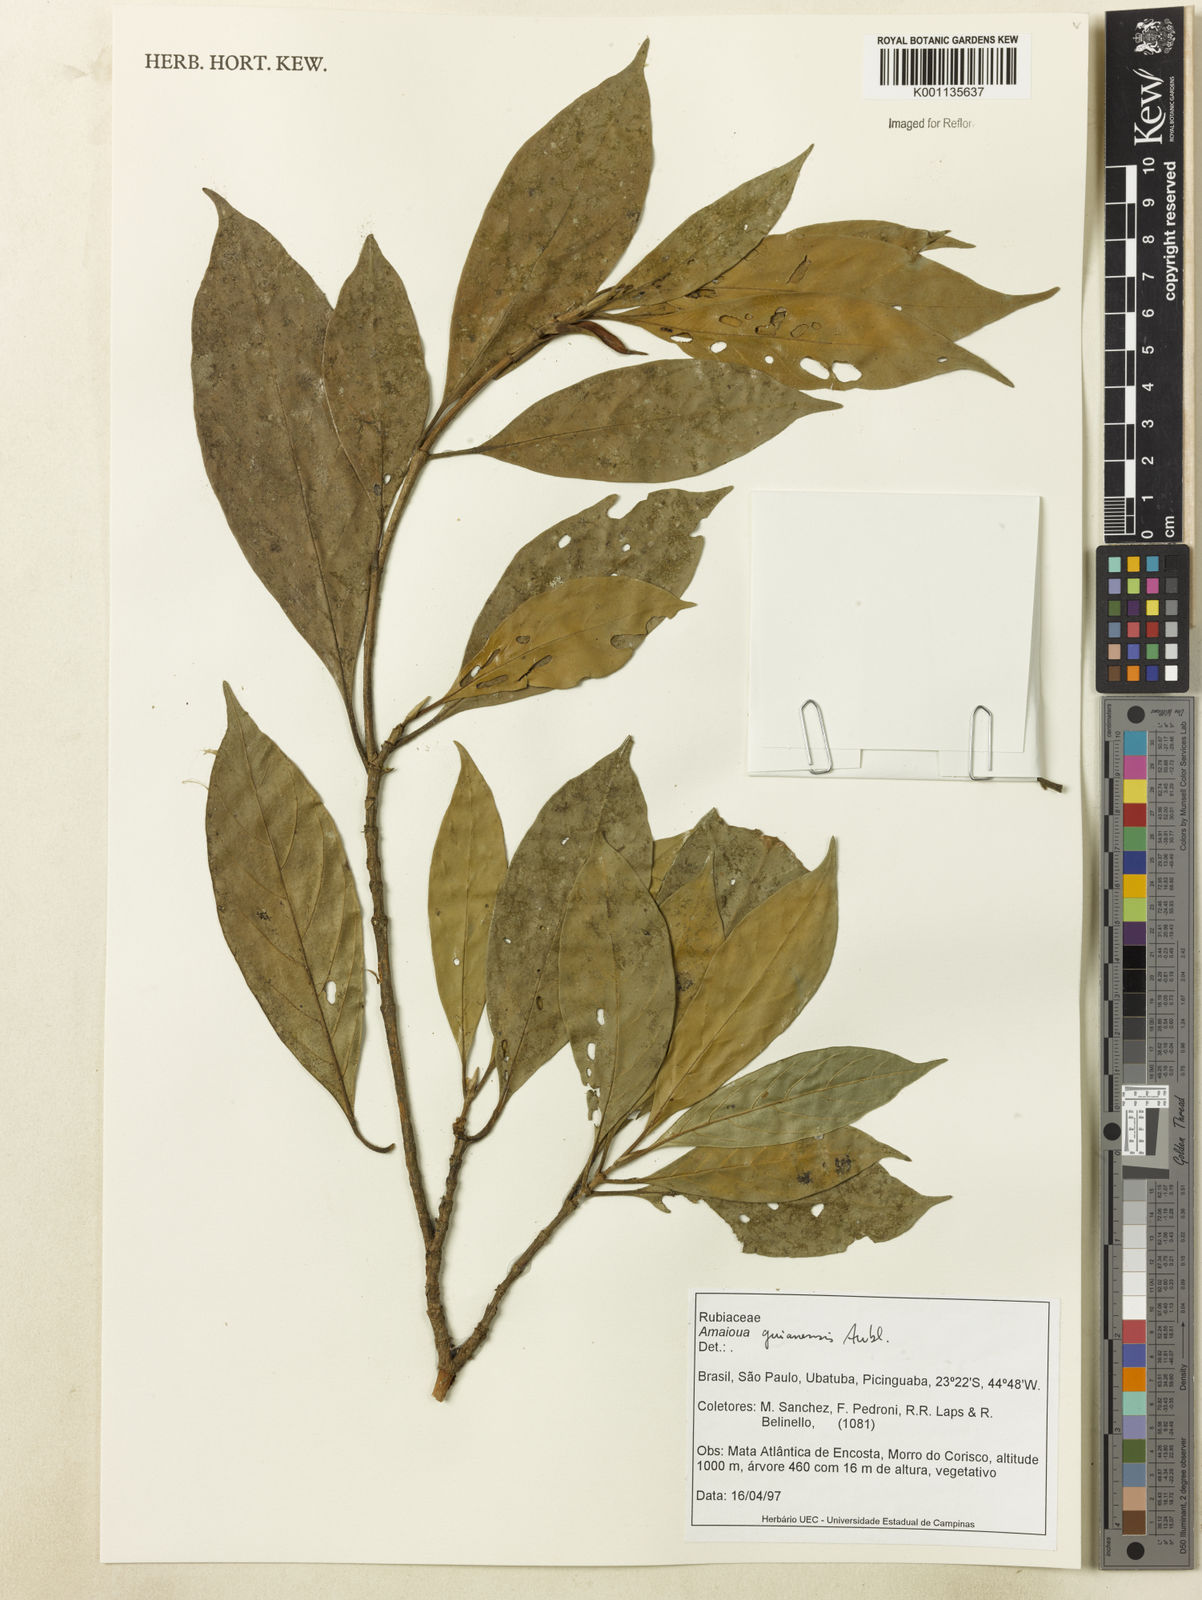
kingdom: Plantae
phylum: Tracheophyta
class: Magnoliopsida
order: Gentianales
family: Rubiaceae
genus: Amaioua
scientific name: Amaioua intermedia
